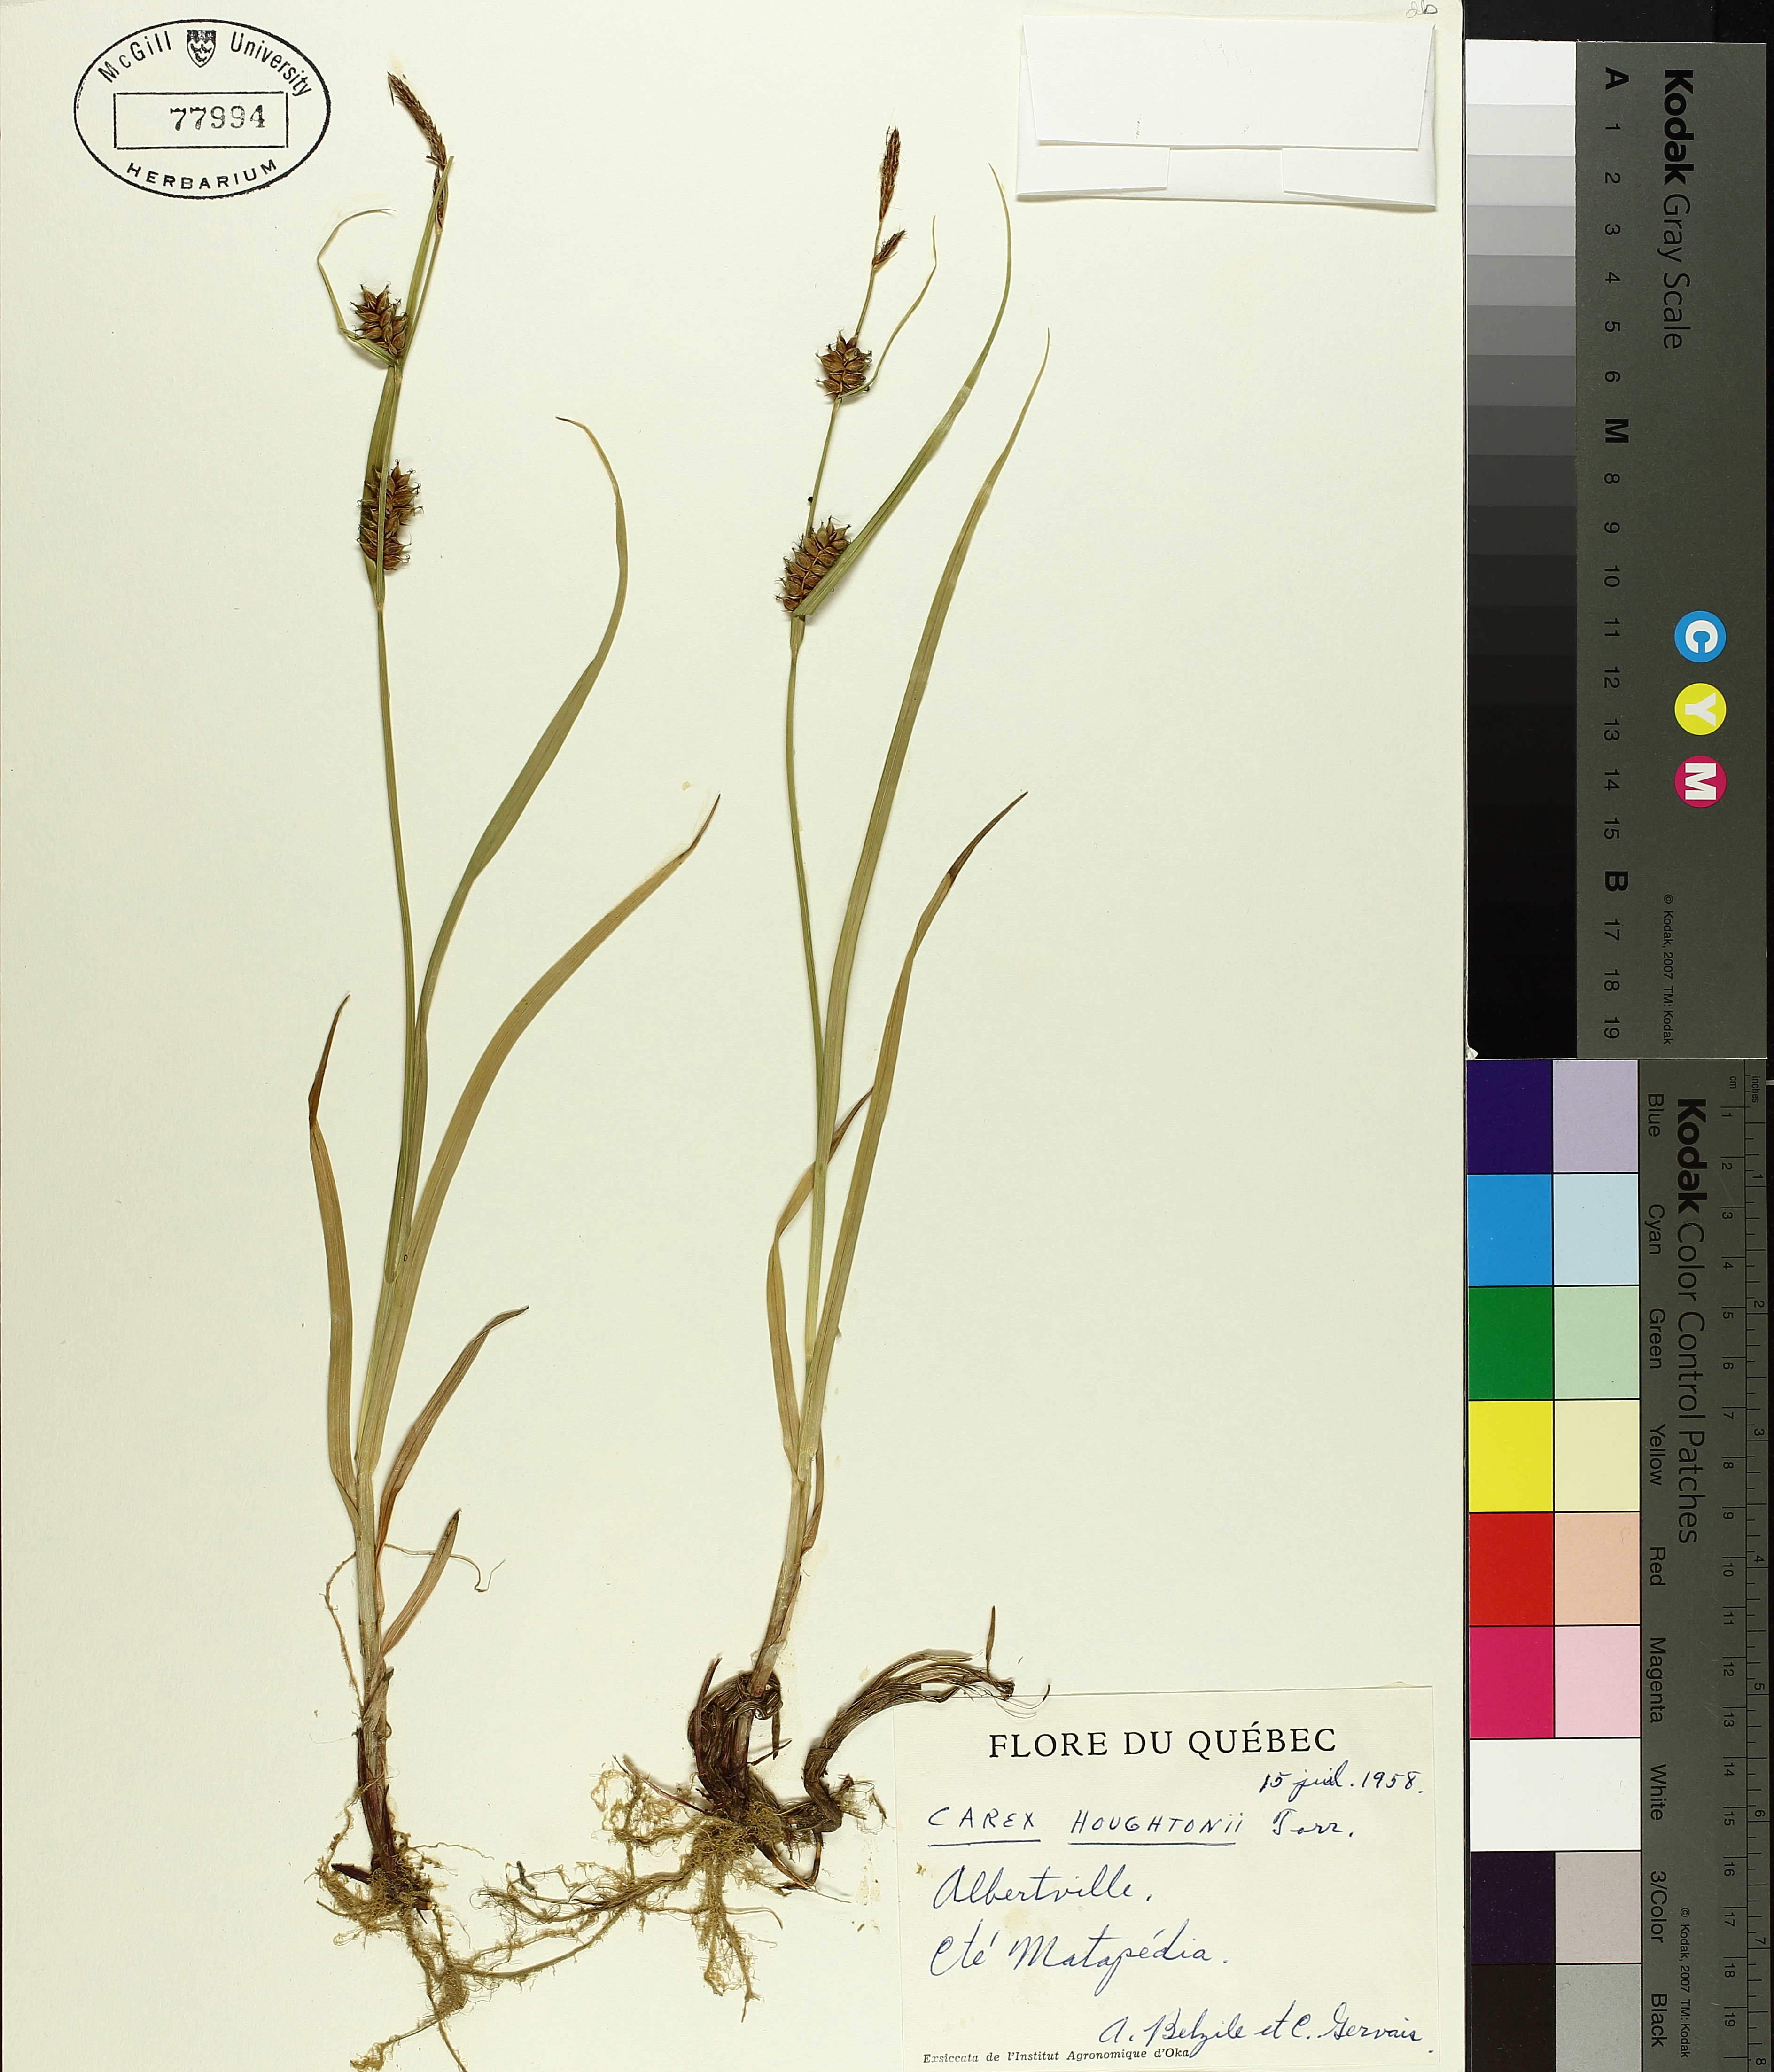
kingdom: Plantae
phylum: Tracheophyta
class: Liliopsida
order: Poales
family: Cyperaceae
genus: Carex
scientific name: Carex houghtoniana
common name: Houghton's sedge
